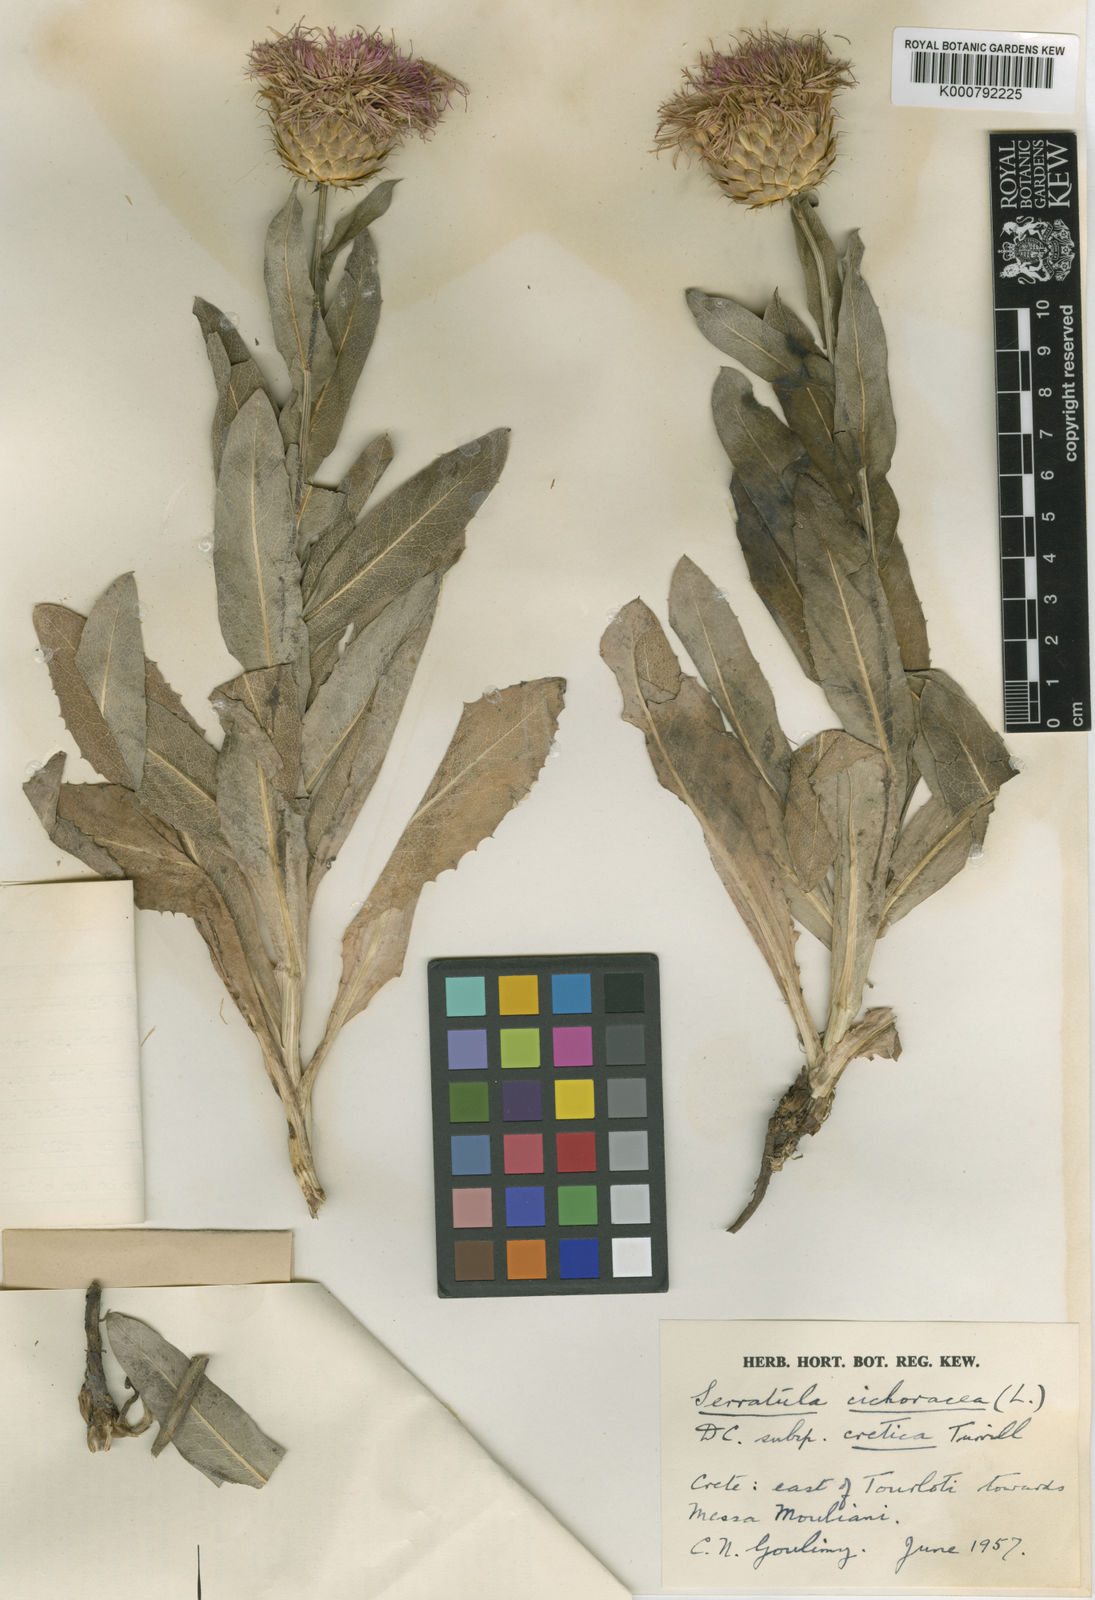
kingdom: Plantae
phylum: Tracheophyta
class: Magnoliopsida
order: Asterales
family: Asteraceae
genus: Klasea
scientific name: Klasea flavescens
